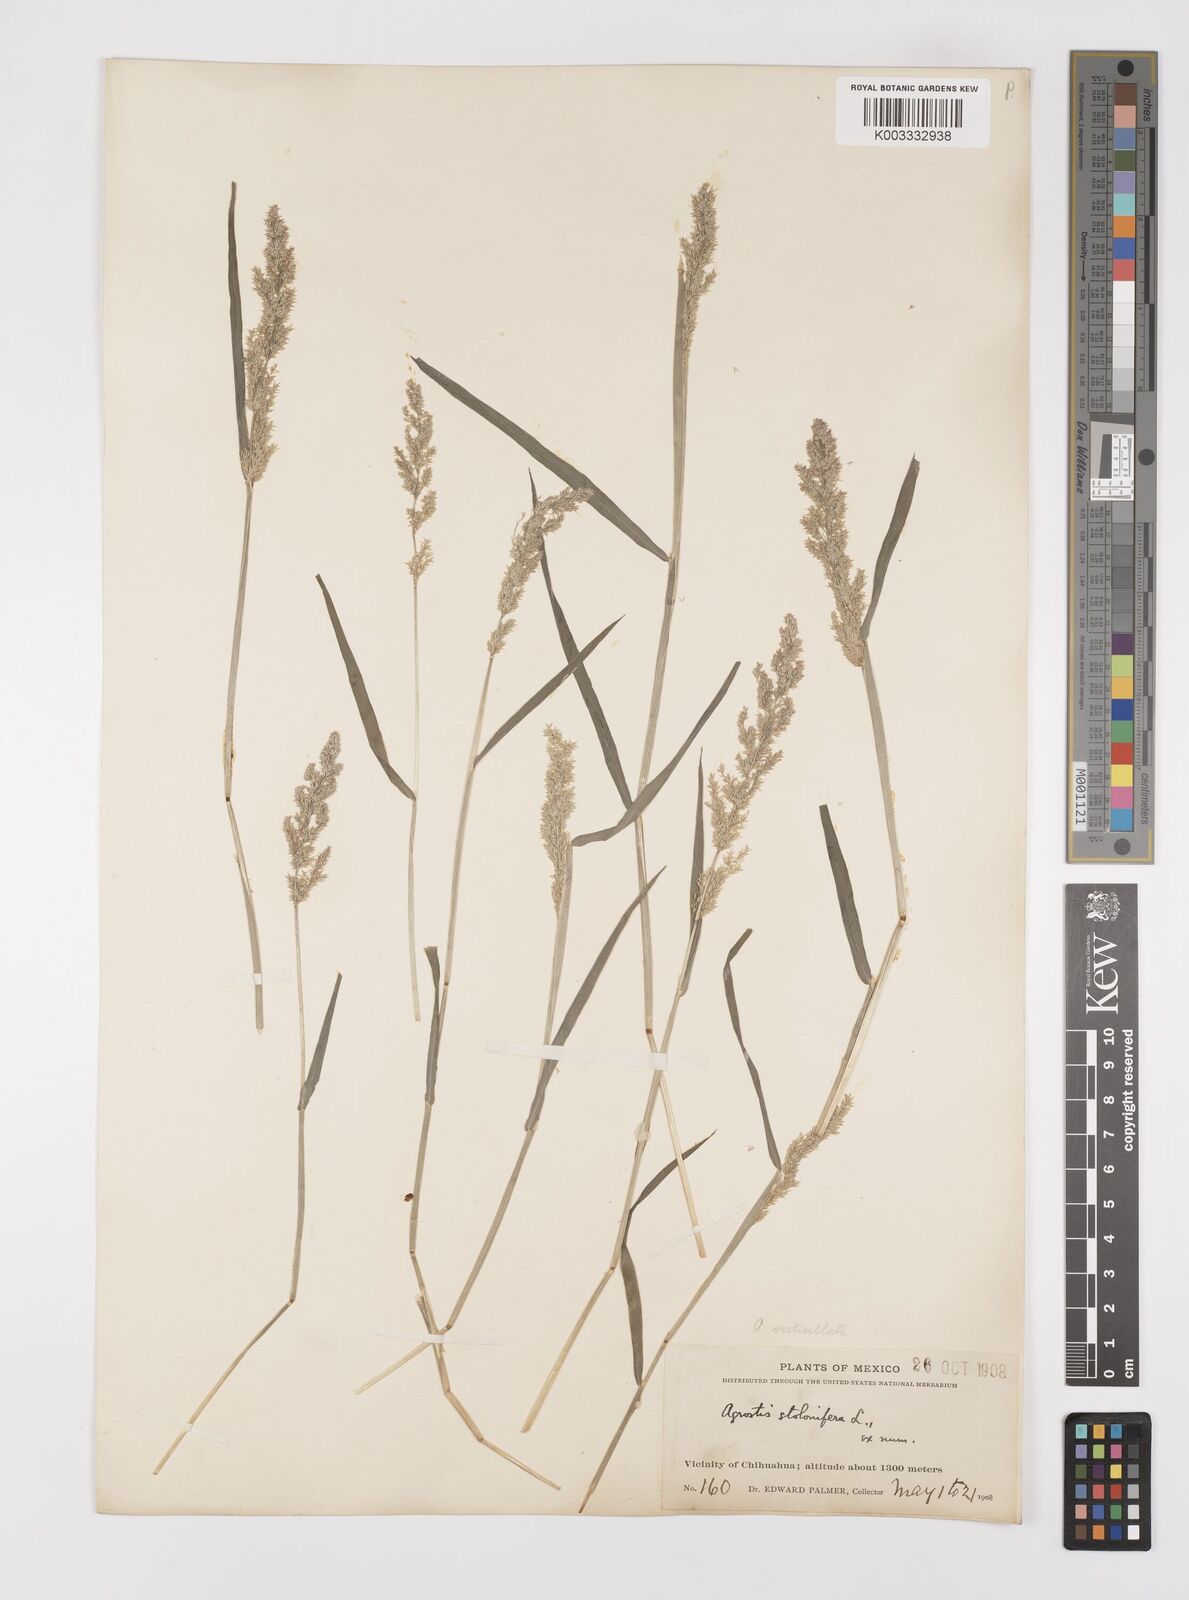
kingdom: Plantae
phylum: Tracheophyta
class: Liliopsida
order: Poales
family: Poaceae
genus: Polypogon
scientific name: Polypogon viridis
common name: Water bent
